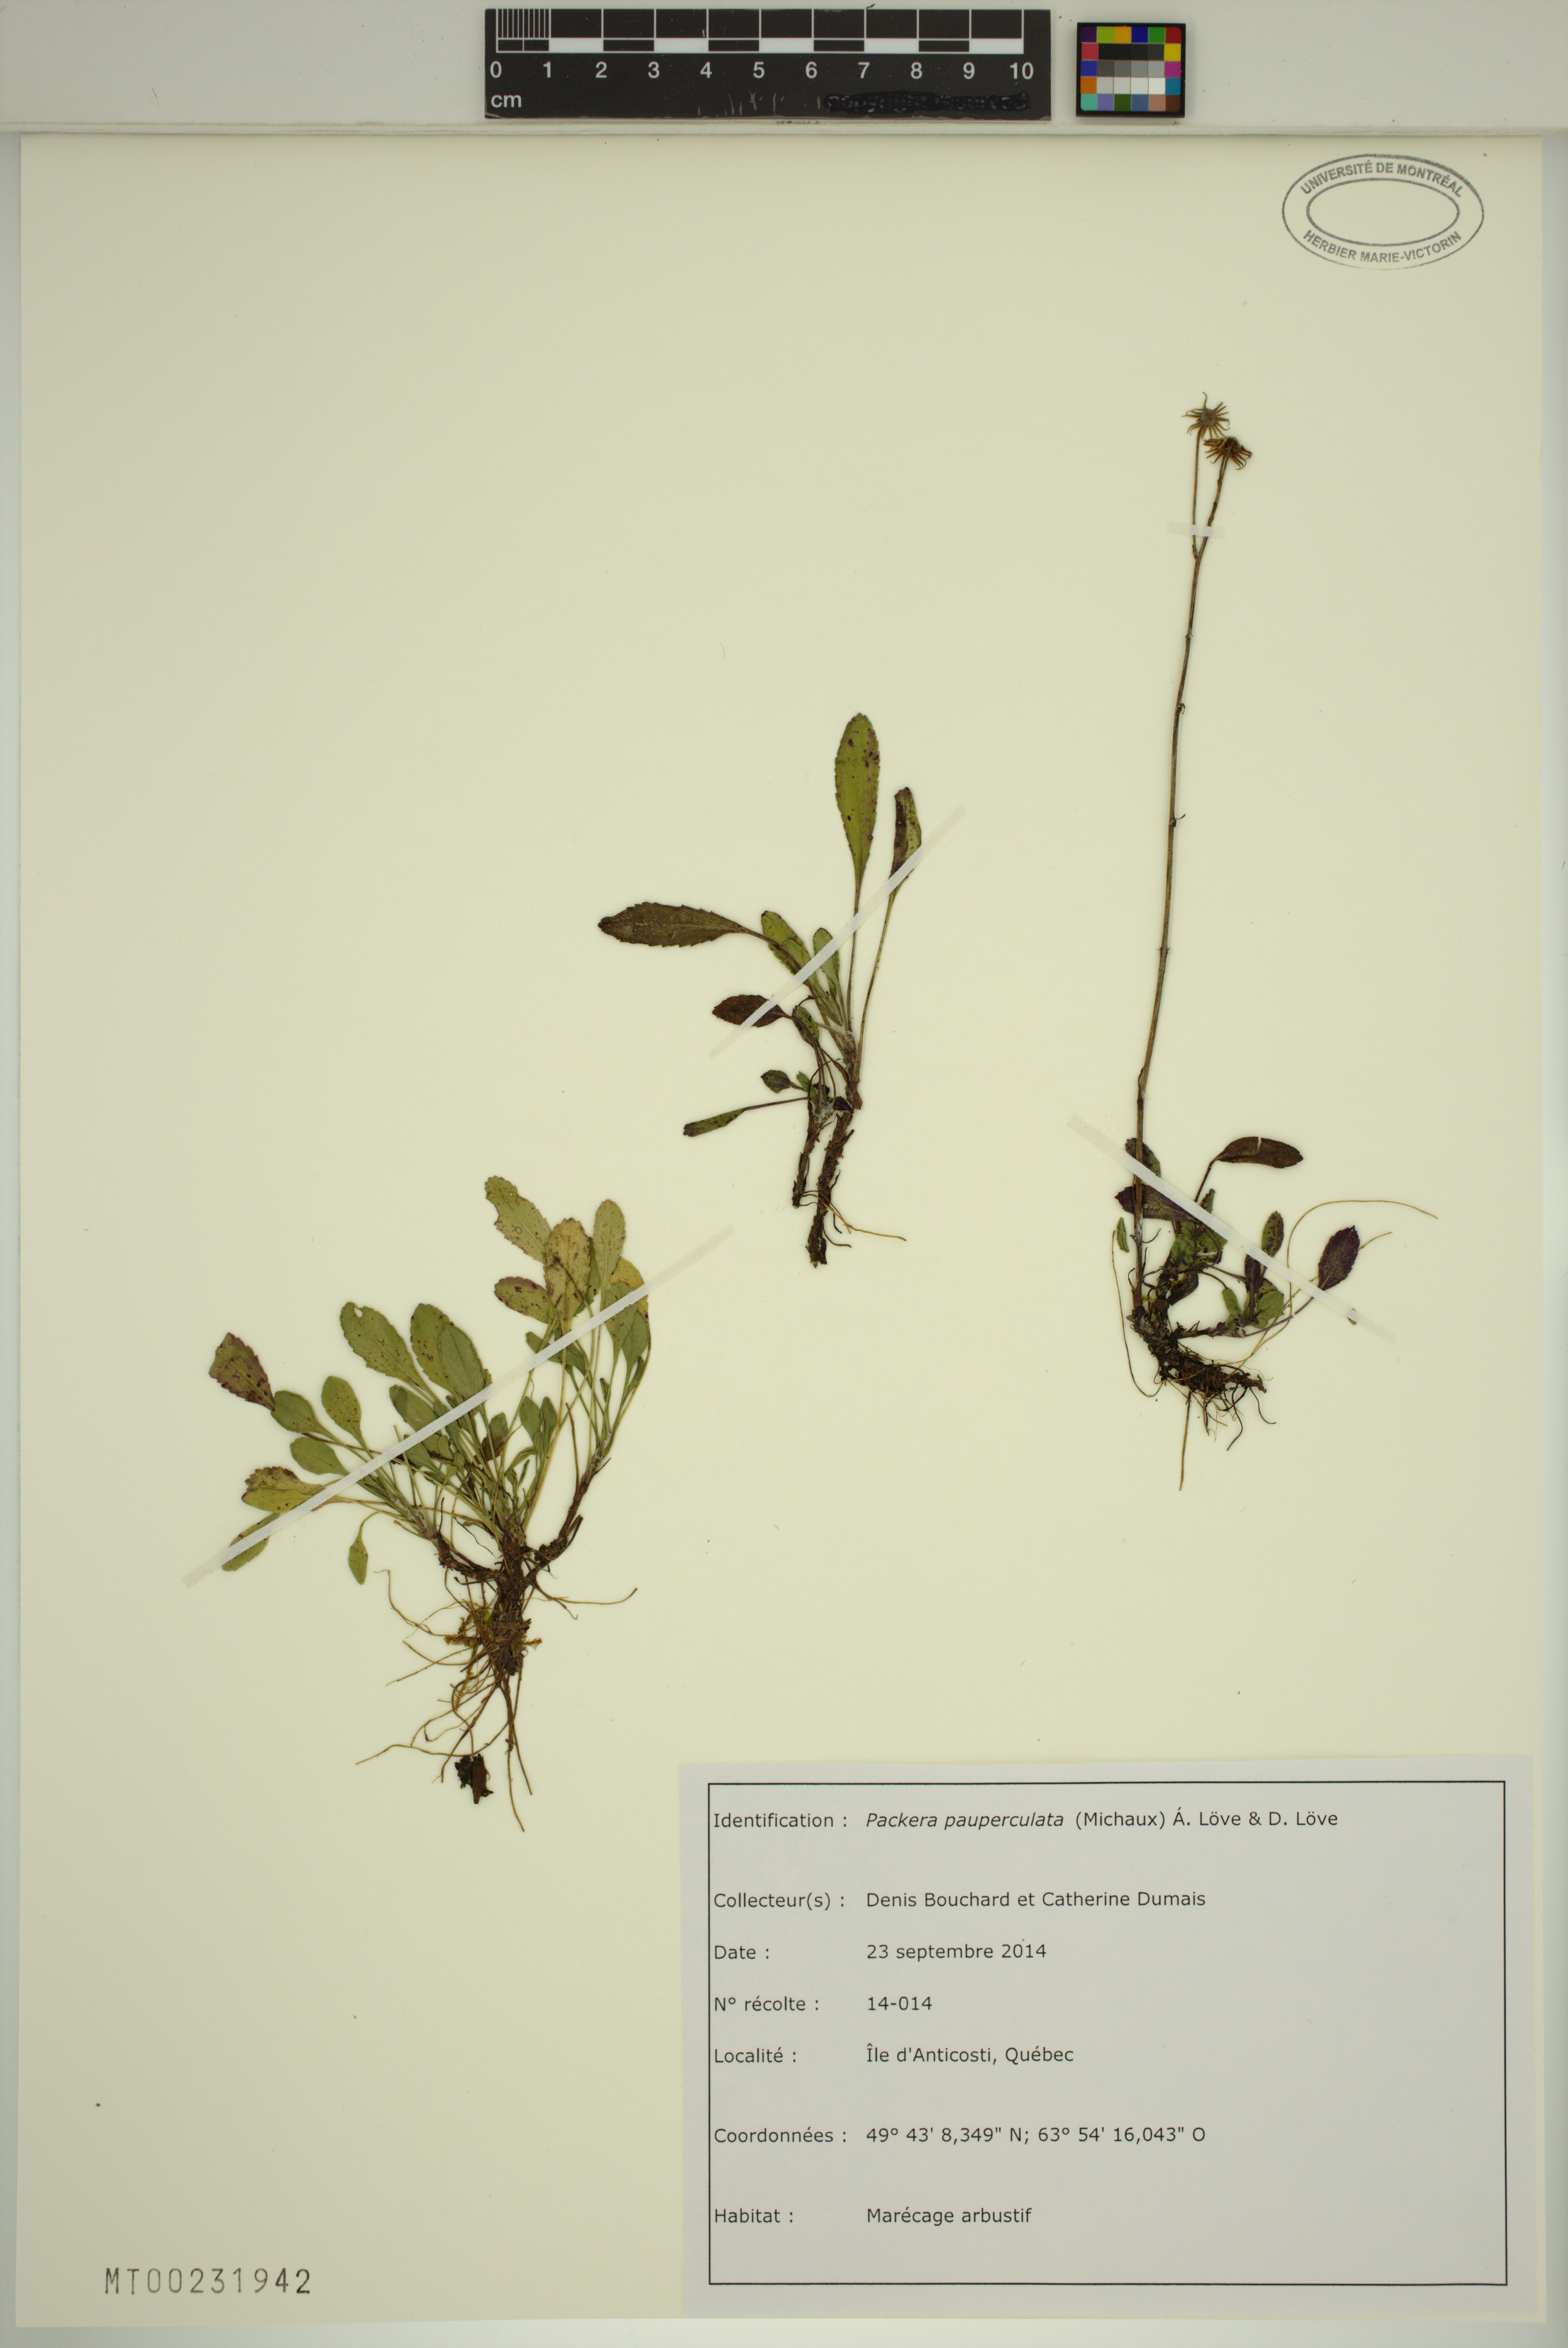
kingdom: Plantae
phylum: Tracheophyta
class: Magnoliopsida
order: Asterales
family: Asteraceae
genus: Packera
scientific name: Packera paupercula
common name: Balsam groundsel
